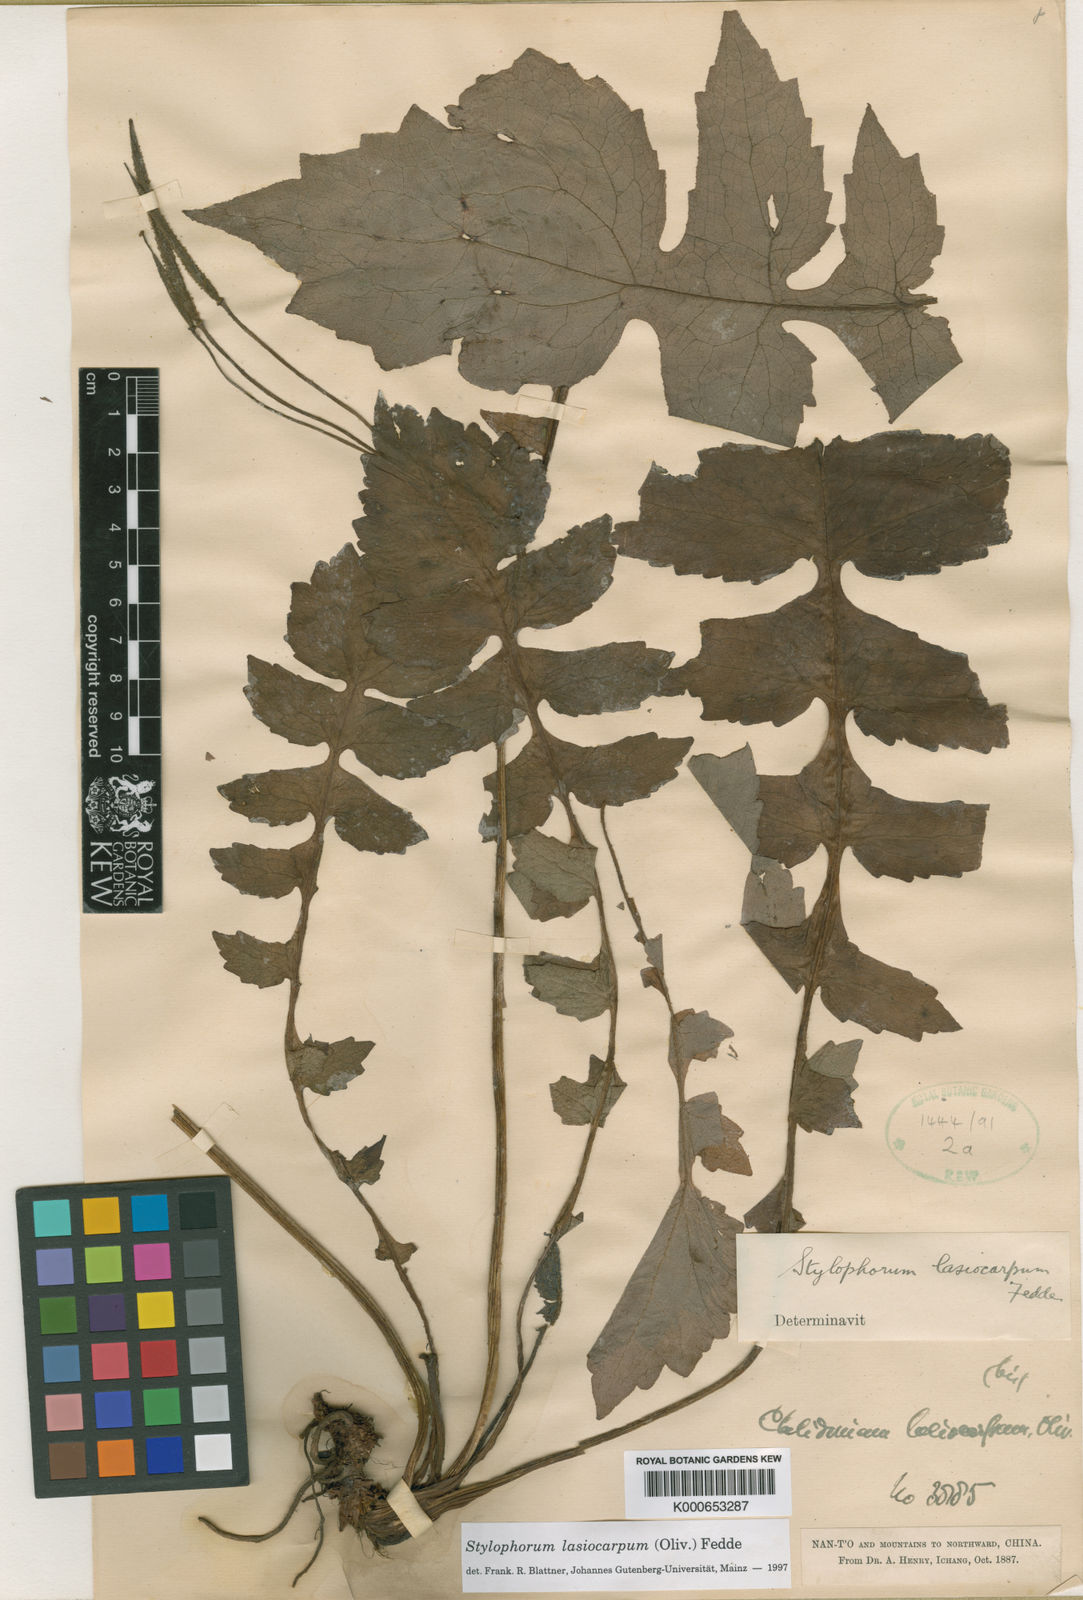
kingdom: Plantae
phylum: Tracheophyta
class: Magnoliopsida
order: Ranunculales
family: Papaveraceae
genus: Stylophorum
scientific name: Stylophorum lasiocarpum
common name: Chinese celandine-poppy
